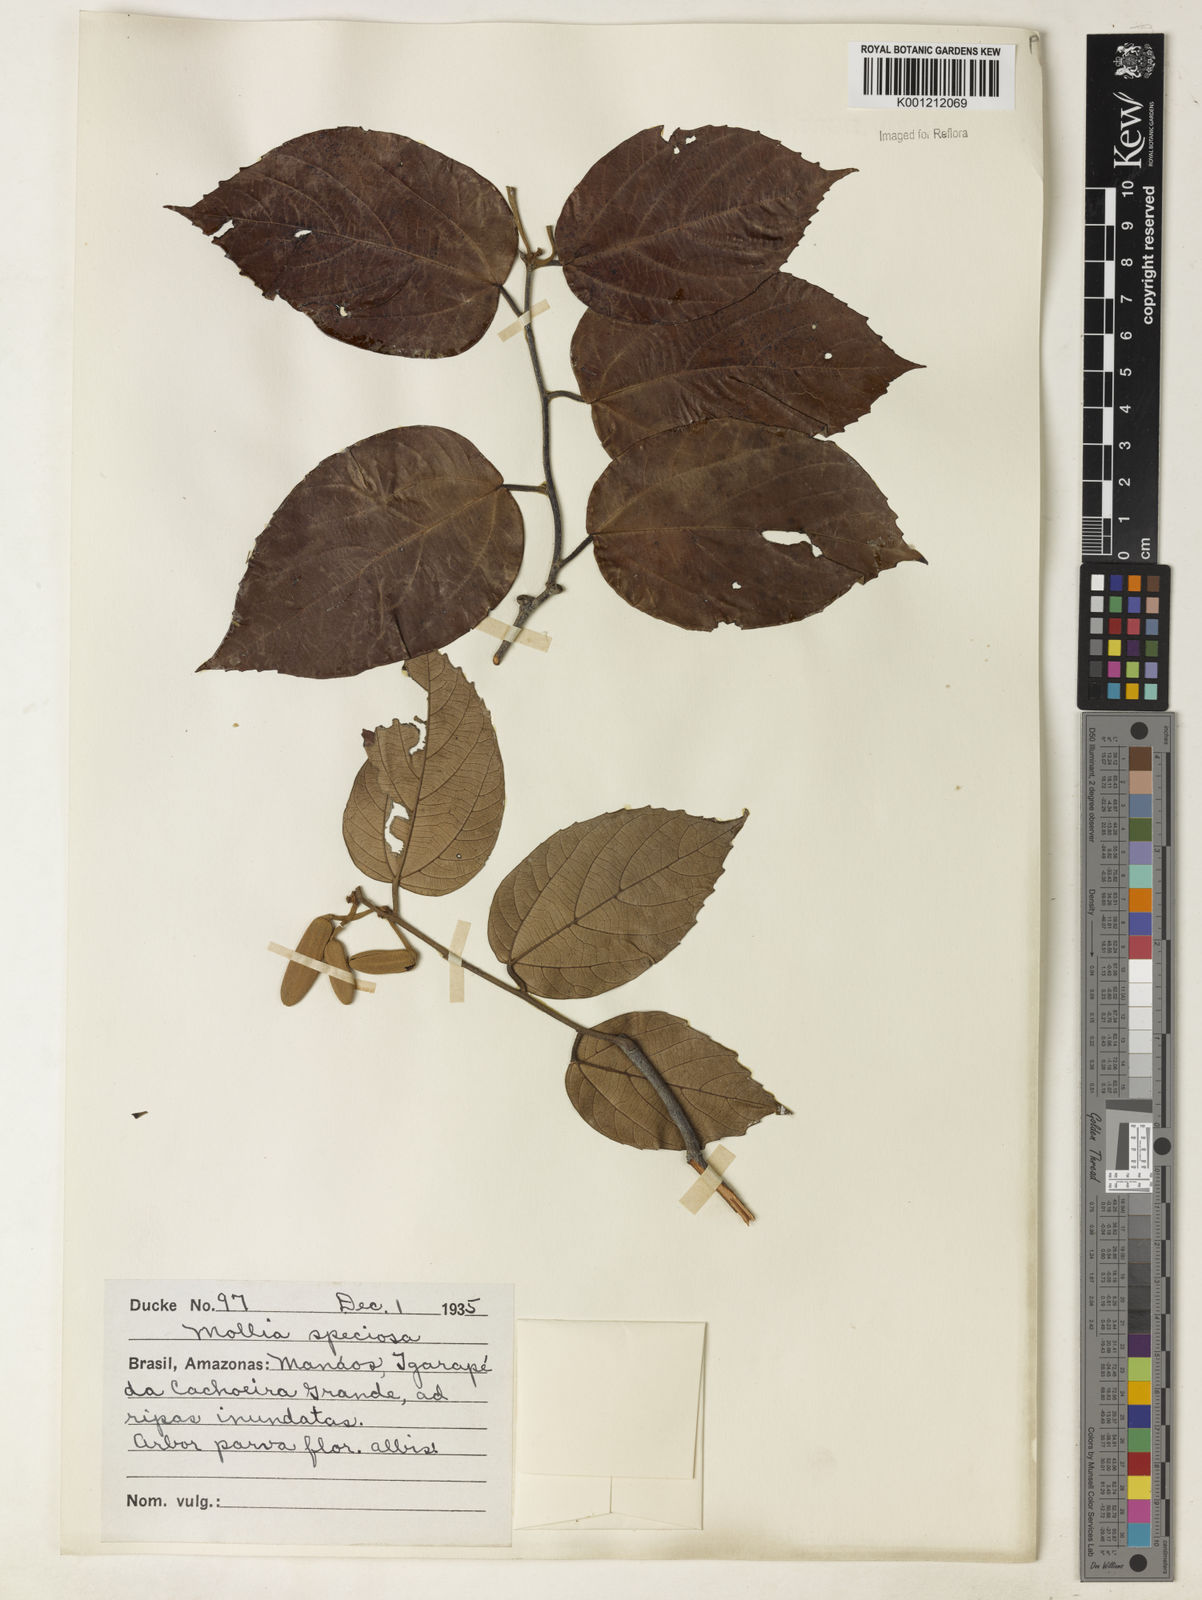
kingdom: Plantae
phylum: Tracheophyta
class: Magnoliopsida
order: Malvales
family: Malvaceae
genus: Mollia
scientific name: Mollia speciosa
